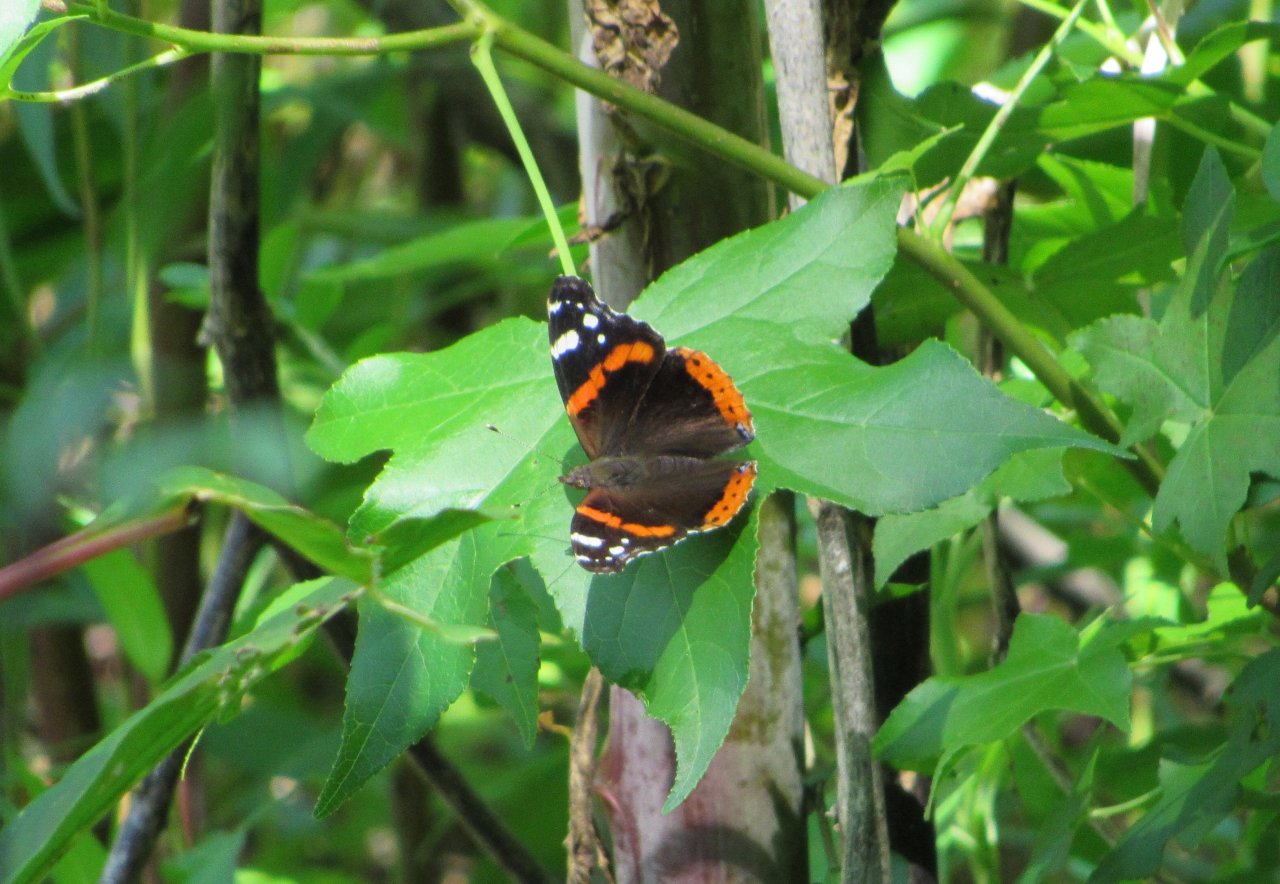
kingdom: Animalia
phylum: Arthropoda
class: Insecta
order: Lepidoptera
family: Nymphalidae
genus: Vanessa
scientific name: Vanessa atalanta
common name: Red Admiral
